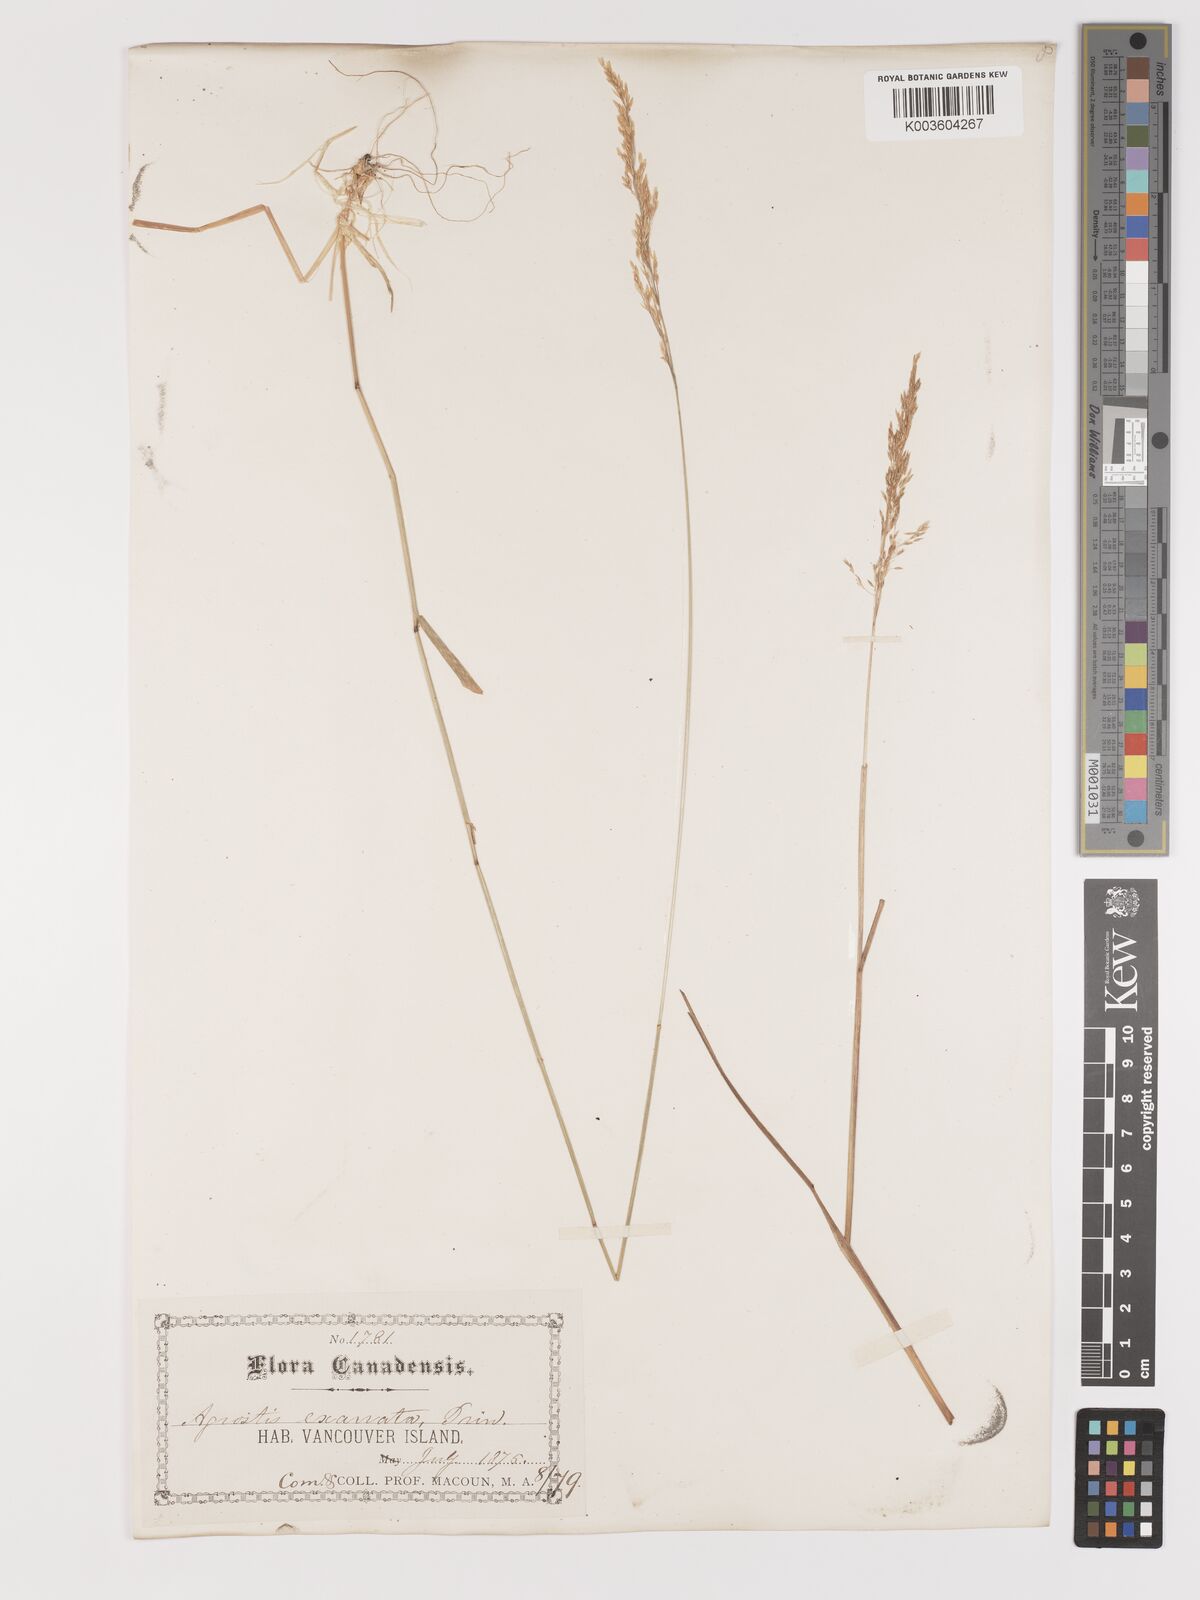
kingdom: Plantae
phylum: Tracheophyta
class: Liliopsida
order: Poales
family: Poaceae
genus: Agrostis
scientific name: Agrostis exarata
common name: Spike bent
